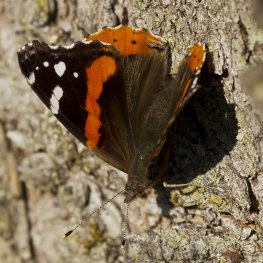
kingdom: Animalia
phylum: Arthropoda
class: Insecta
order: Lepidoptera
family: Nymphalidae
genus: Vanessa
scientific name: Vanessa atalanta
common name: Red Admiral
